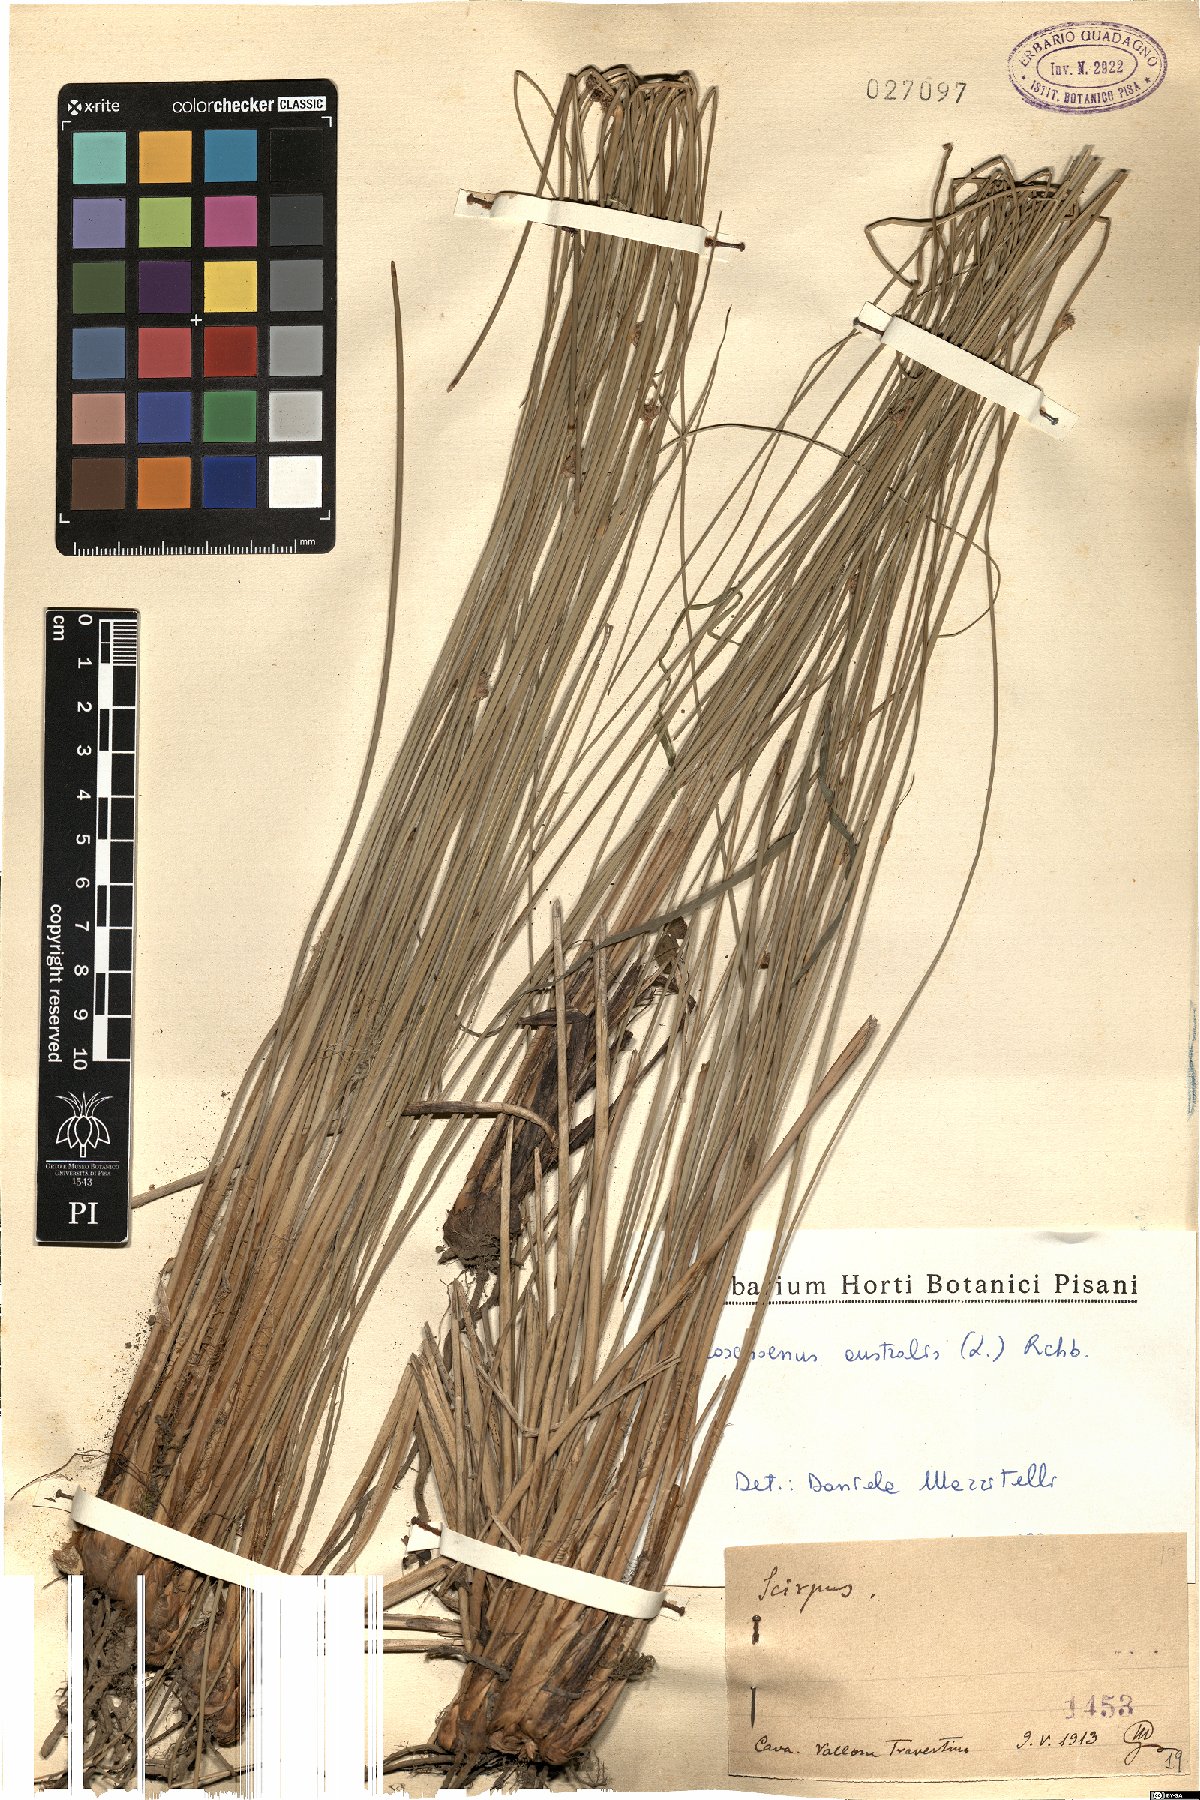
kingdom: Plantae
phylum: Tracheophyta
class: Liliopsida
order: Poales
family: Cyperaceae
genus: Scirpoides
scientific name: Scirpoides holoschoenus
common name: Round-headed club-rush
